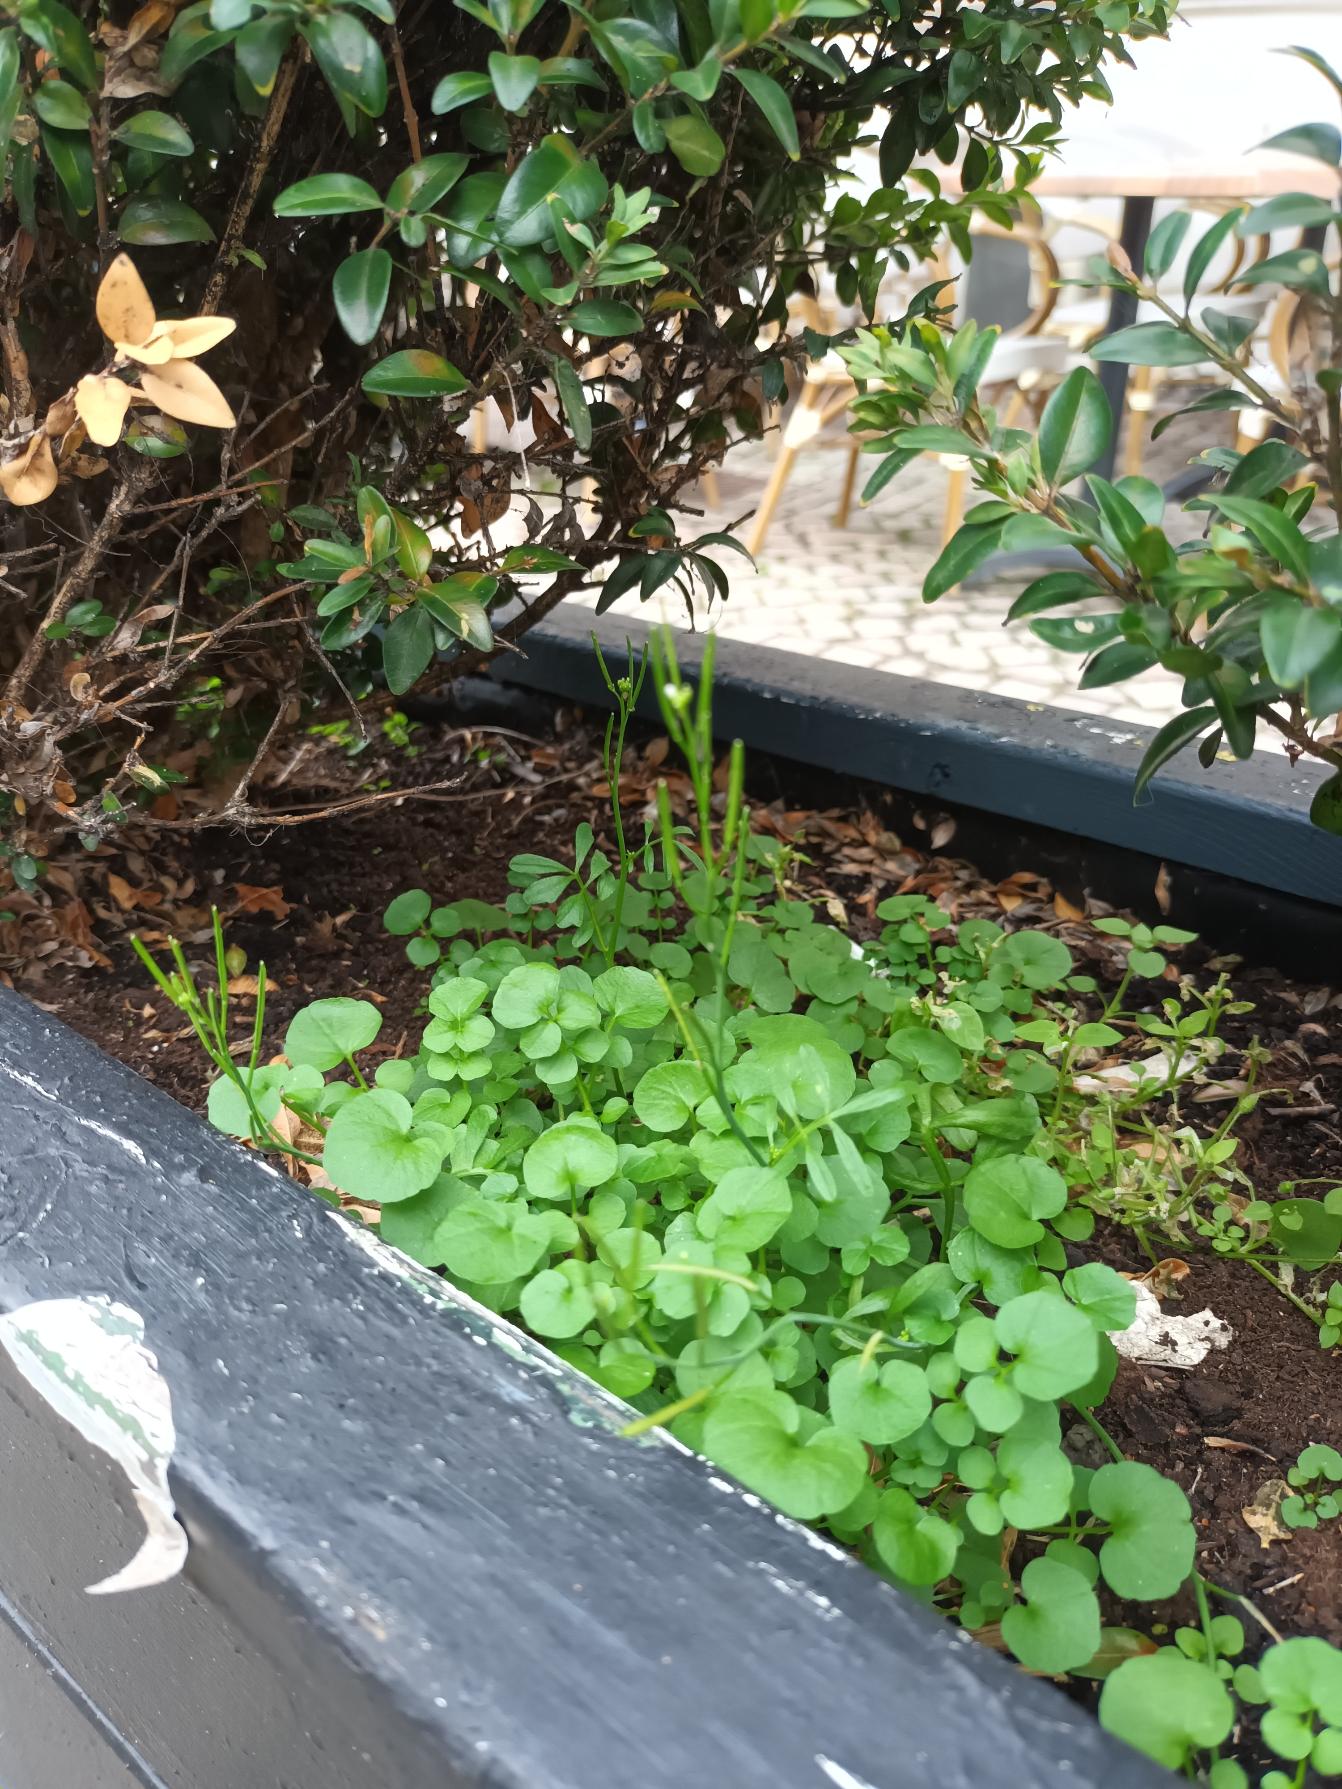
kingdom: Plantae
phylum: Tracheophyta
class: Magnoliopsida
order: Brassicales
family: Brassicaceae
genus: Cardamine
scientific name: Cardamine hirsuta
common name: Roset-springklap
